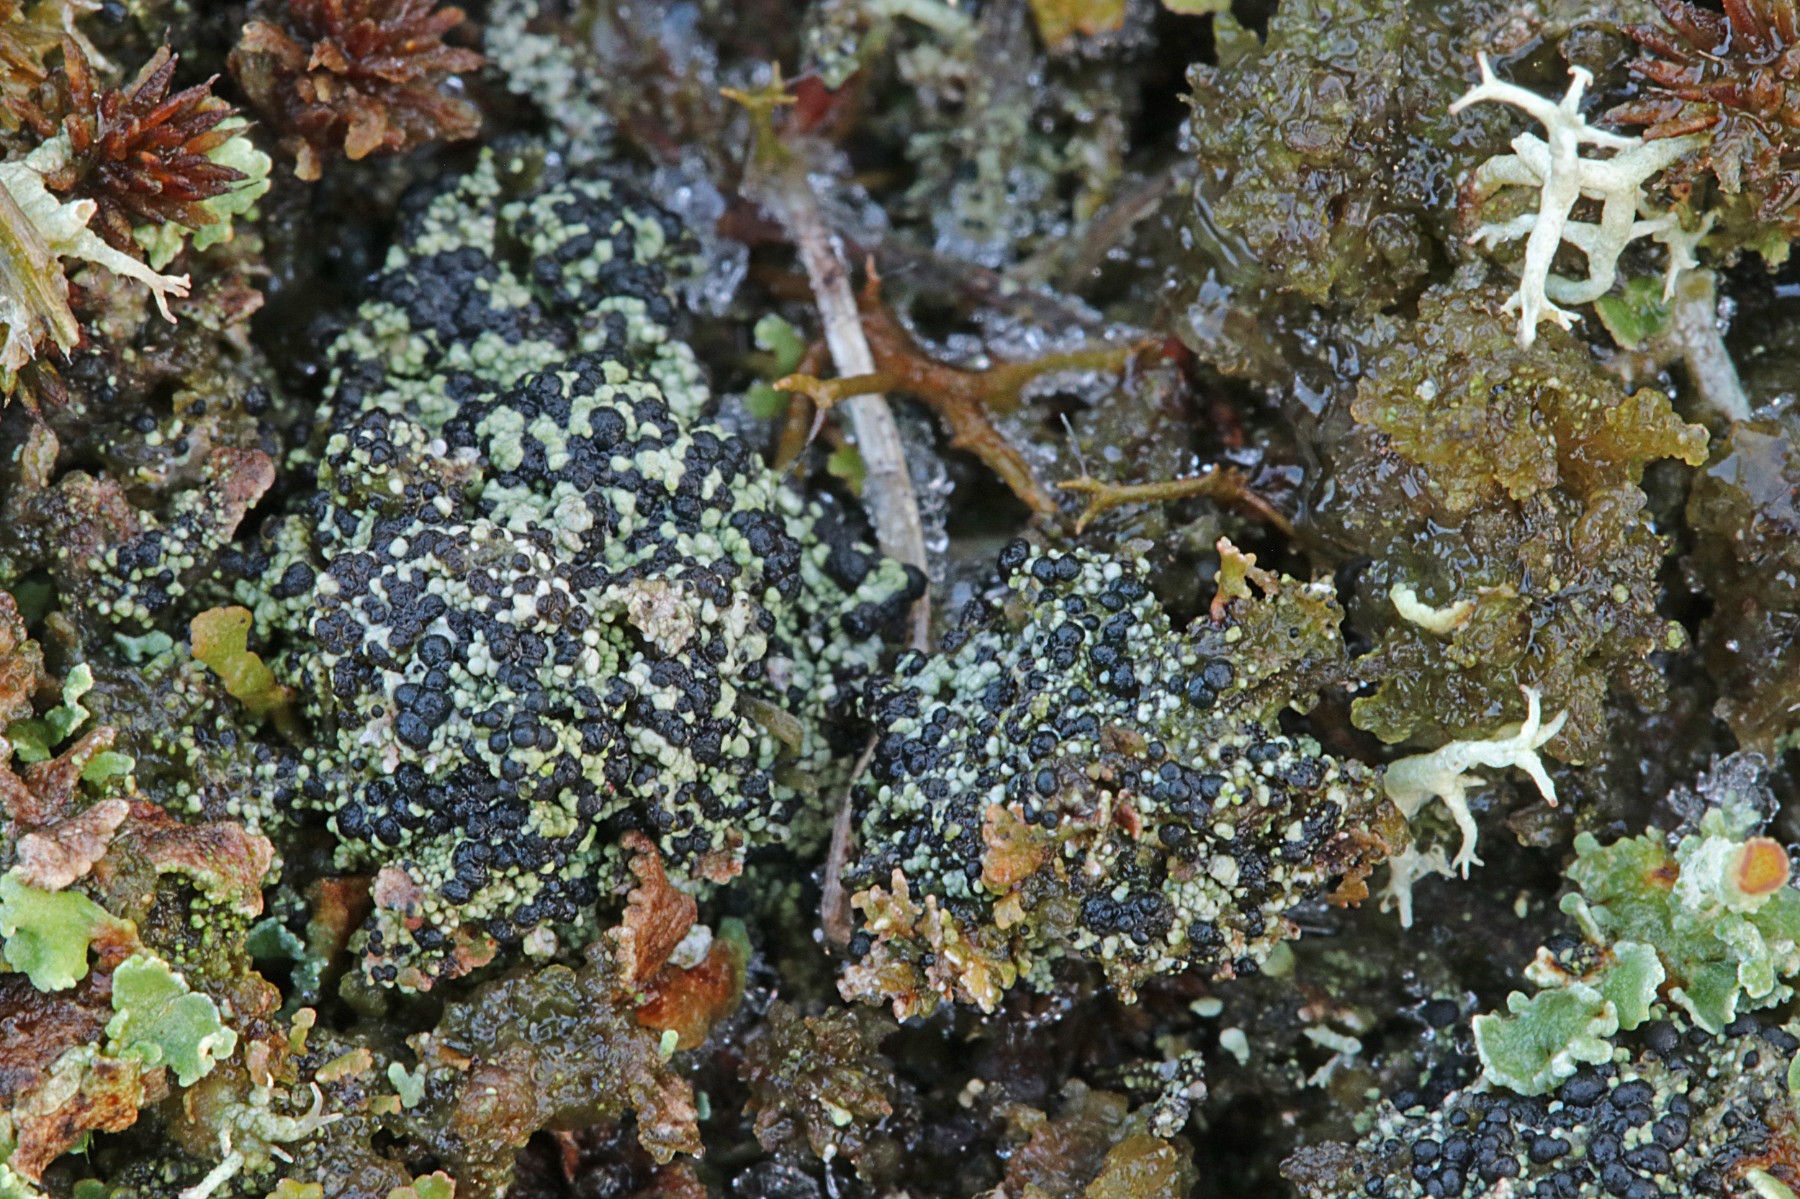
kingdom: Fungi
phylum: Ascomycota
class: Lecanoromycetes
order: Lecanorales
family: Byssolomataceae
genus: Micarea
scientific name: Micarea lignaria
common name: tørve-knaplav
